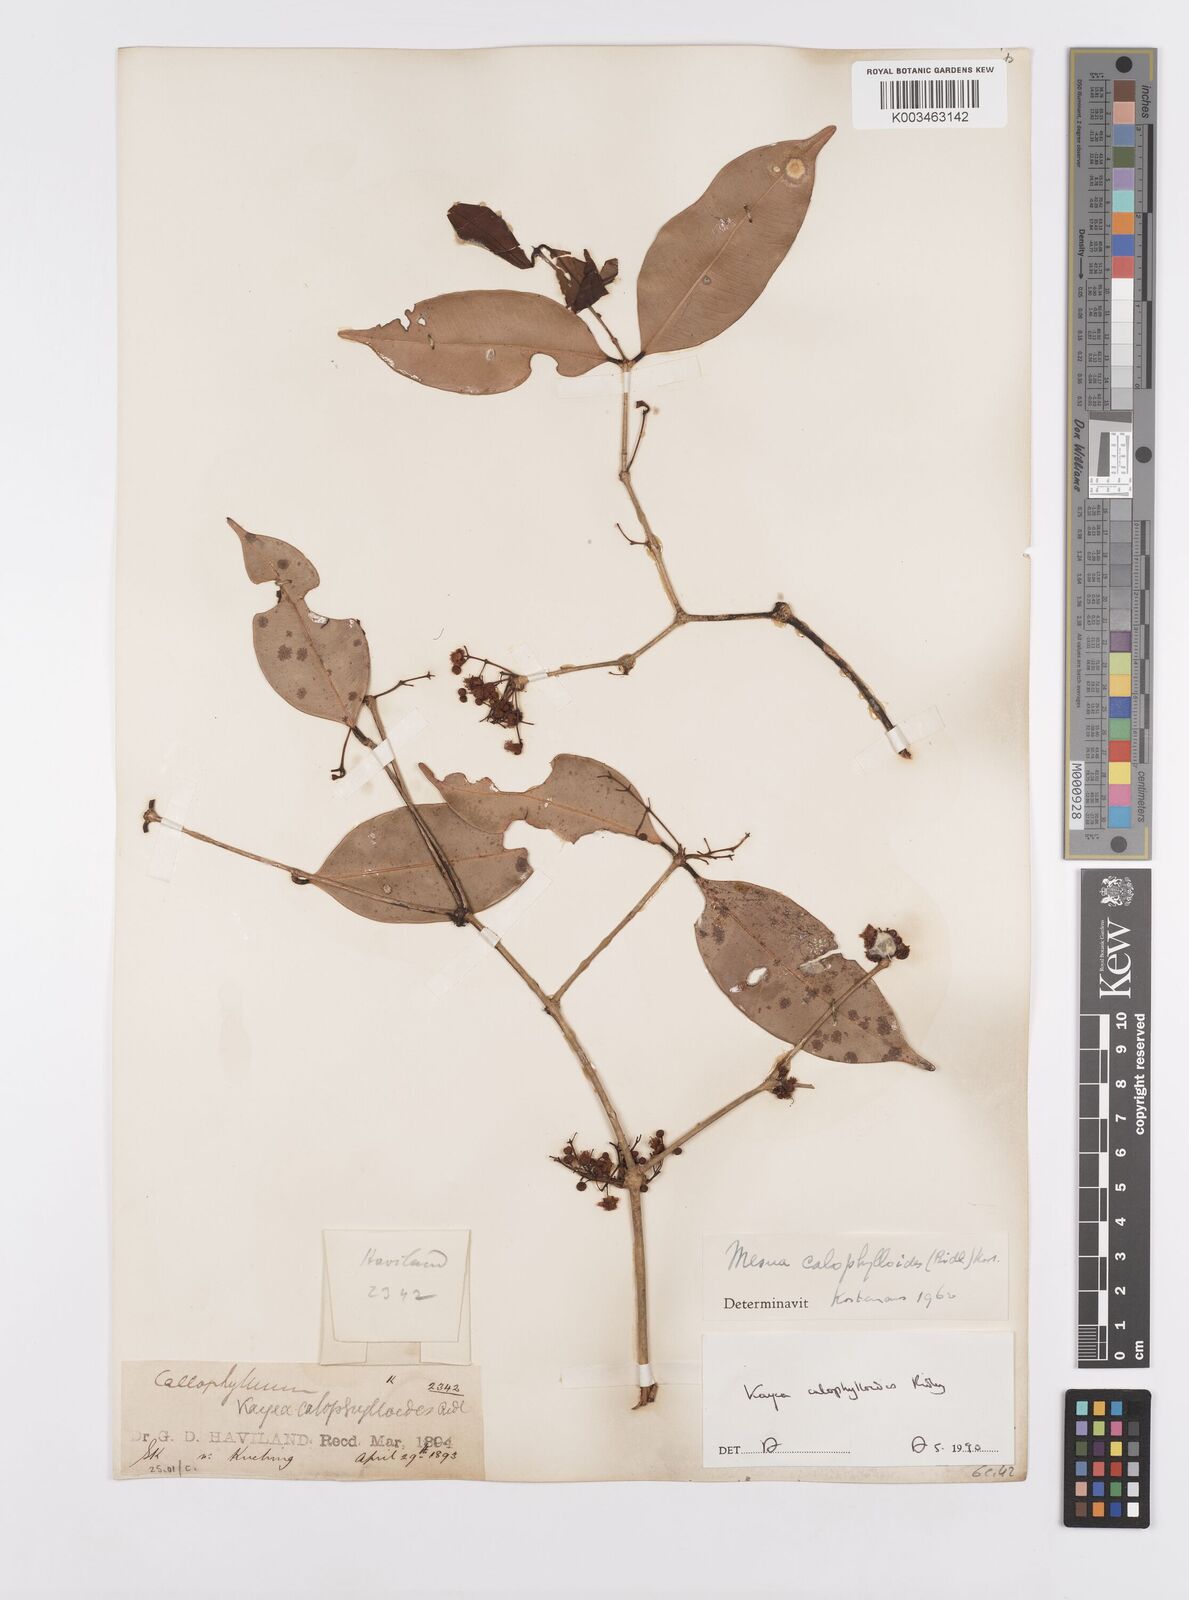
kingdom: Plantae
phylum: Tracheophyta
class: Magnoliopsida
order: Malpighiales
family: Calophyllaceae
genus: Kayea
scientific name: Kayea calophylloides
